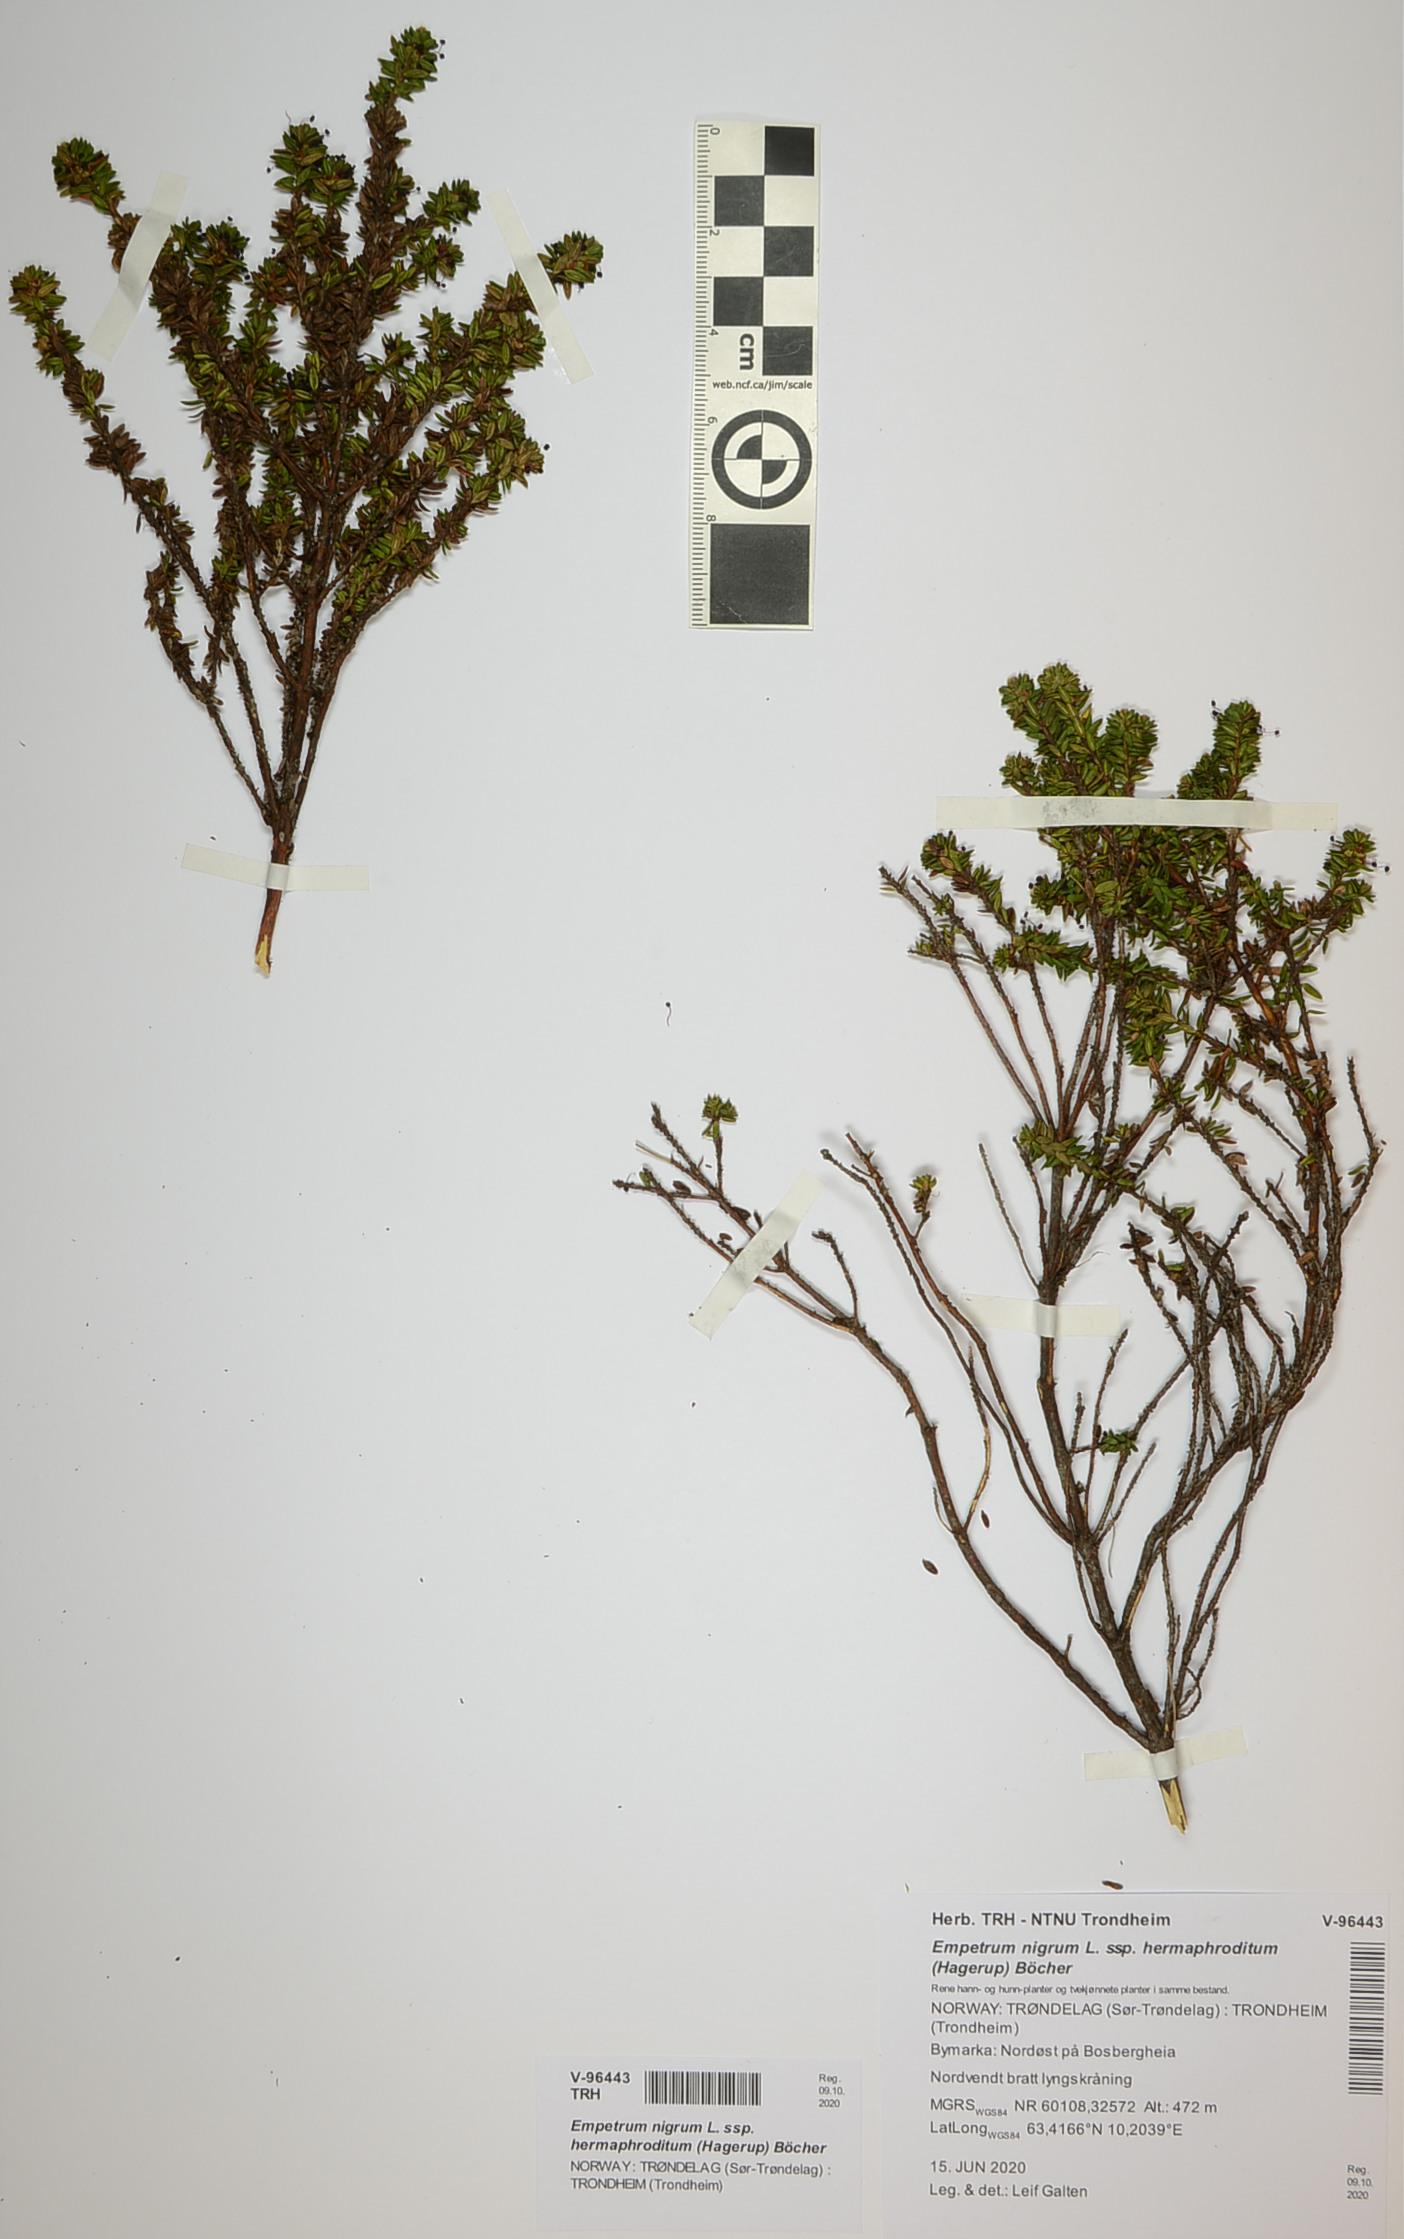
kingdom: Plantae
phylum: Tracheophyta
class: Magnoliopsida
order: Ericales
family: Ericaceae
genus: Empetrum
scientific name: Empetrum hermaphroditum
